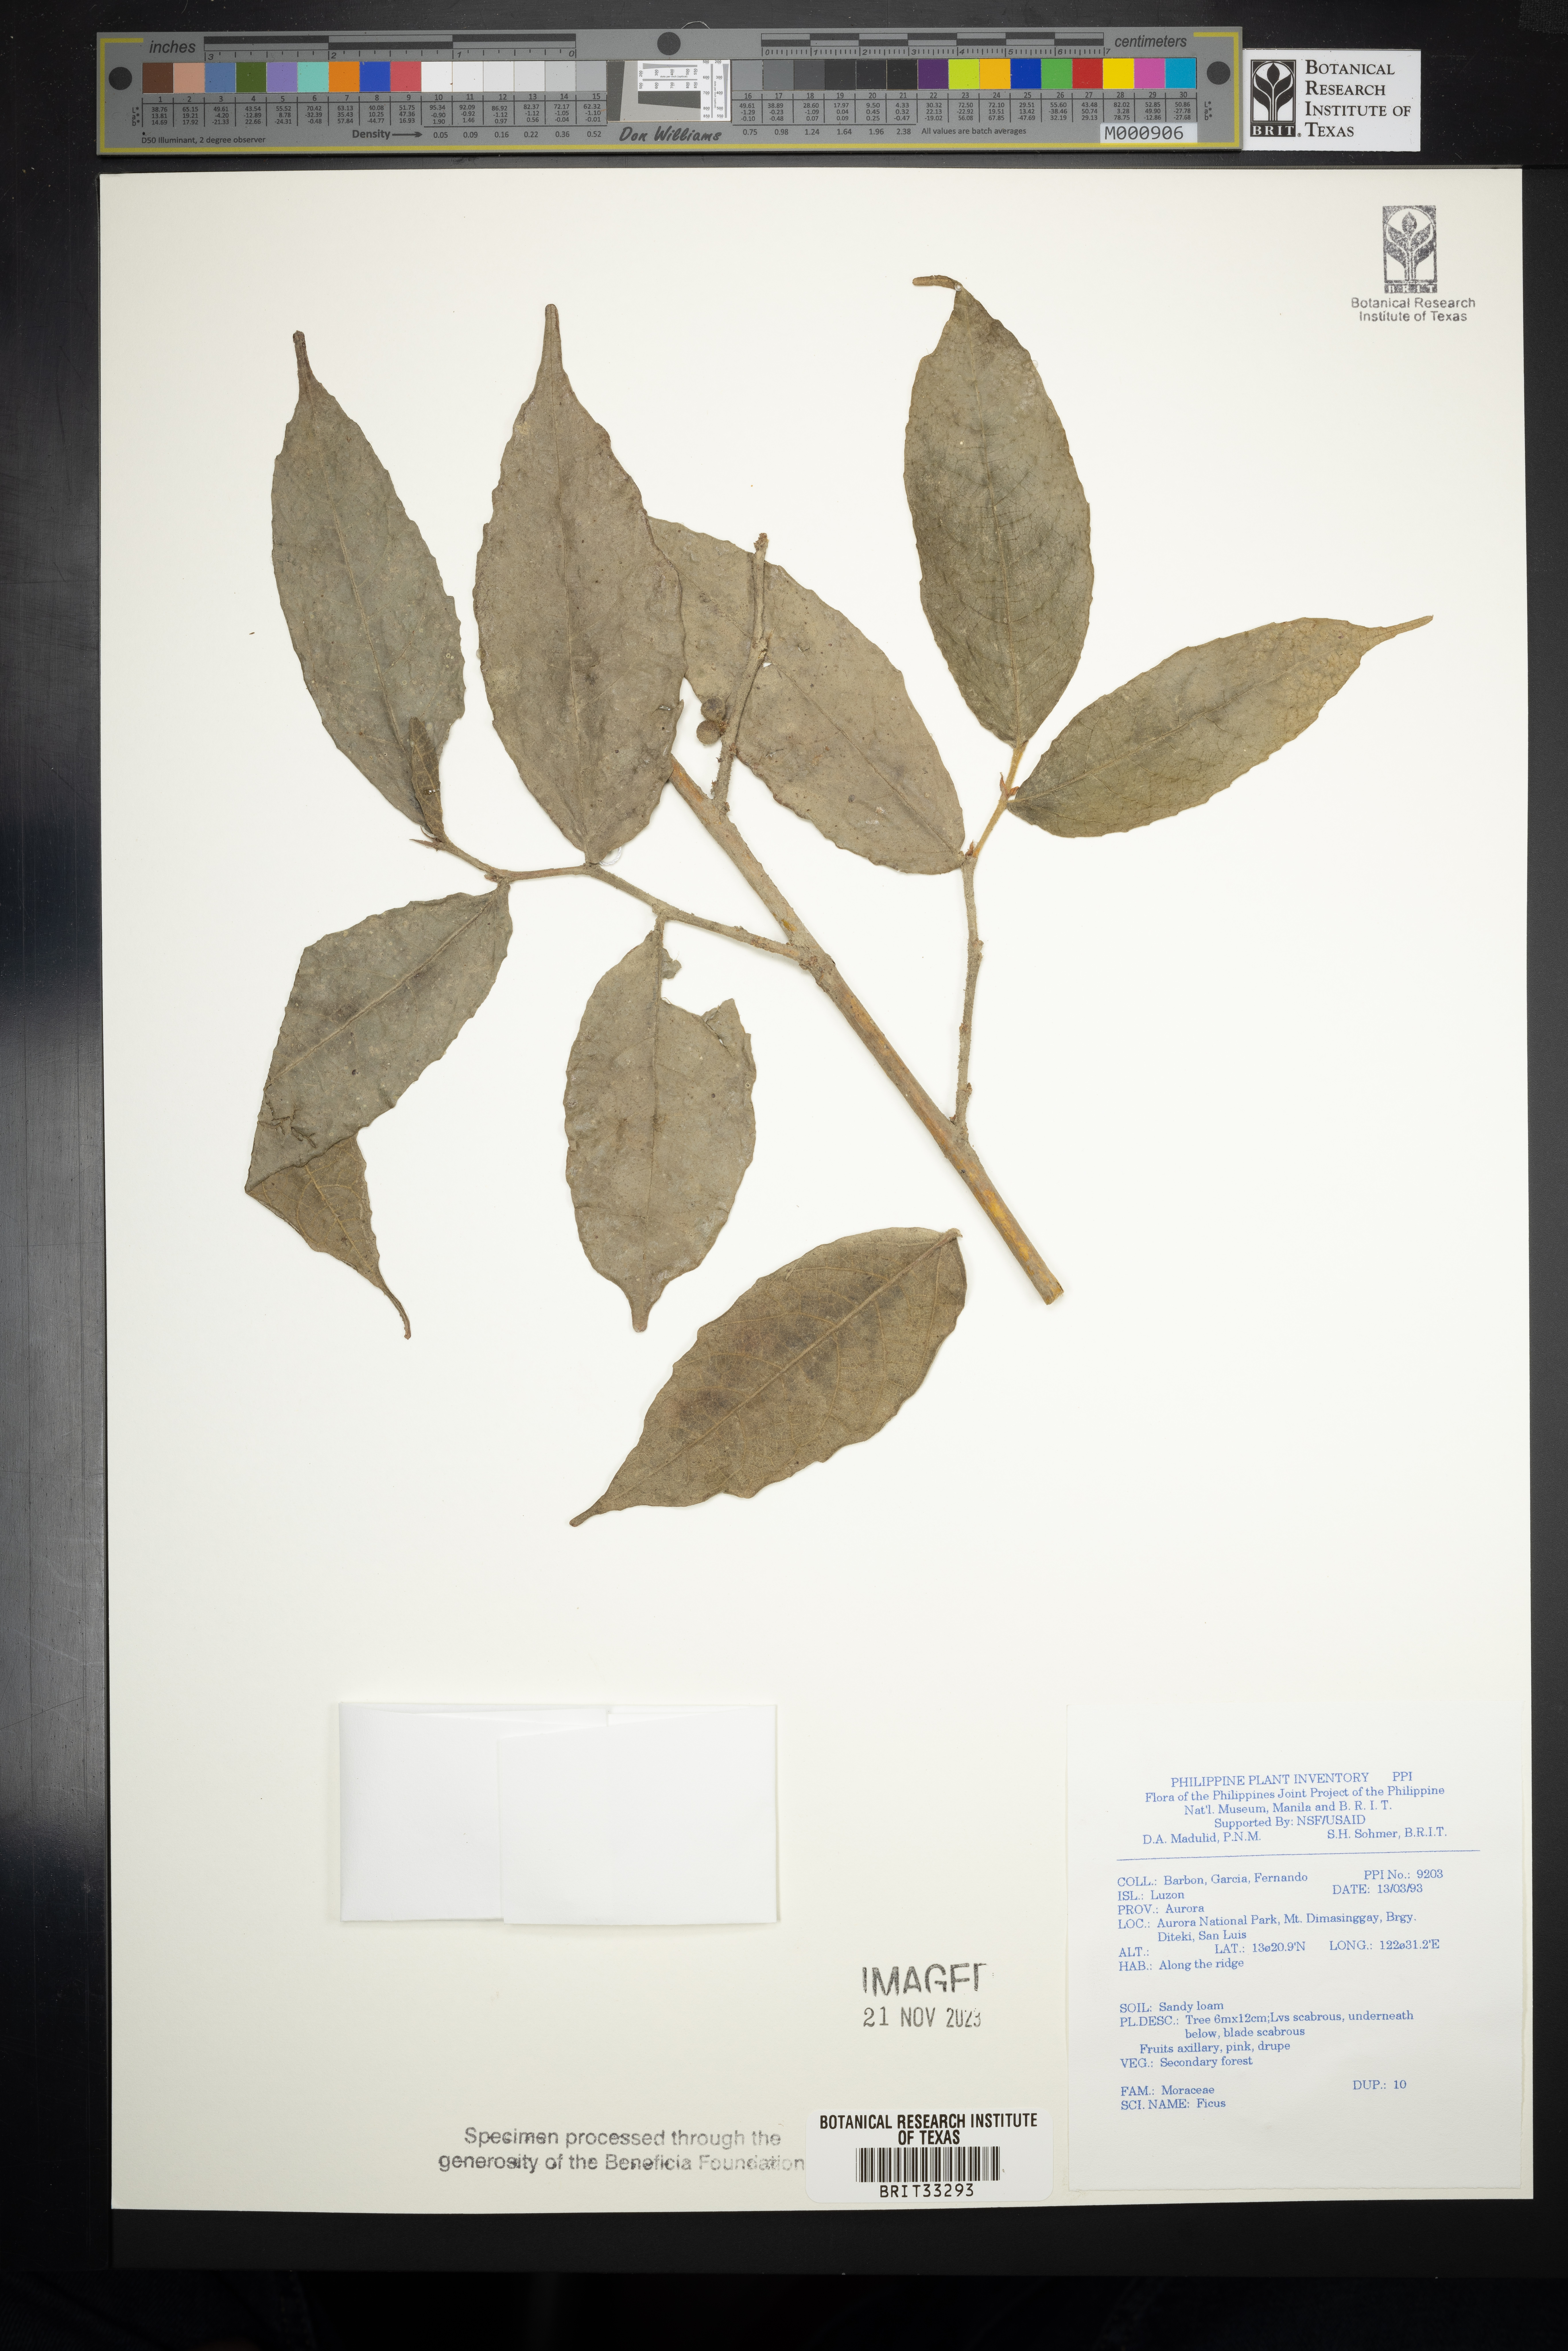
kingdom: Plantae
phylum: Tracheophyta
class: Magnoliopsida
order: Rosales
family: Moraceae
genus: Ficus
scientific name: Ficus
